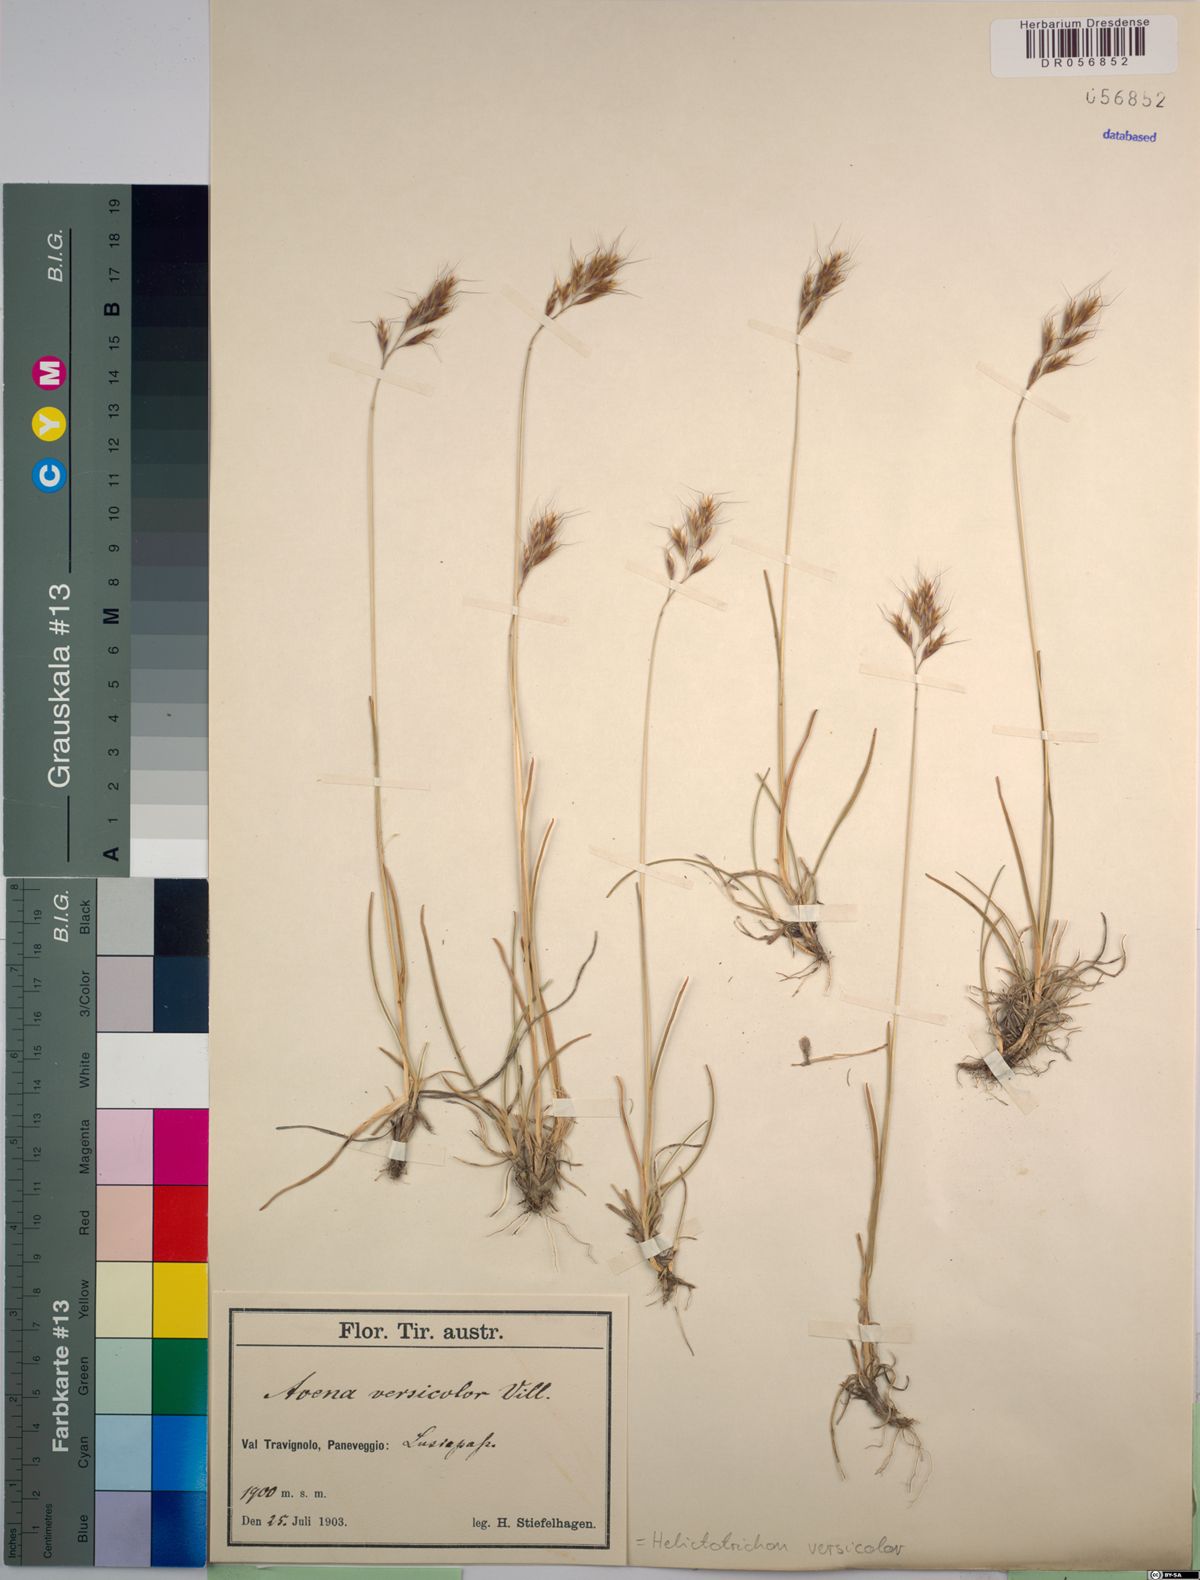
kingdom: Plantae
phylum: Tracheophyta
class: Liliopsida
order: Poales
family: Poaceae
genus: Helictochloa
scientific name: Helictochloa versicolor
